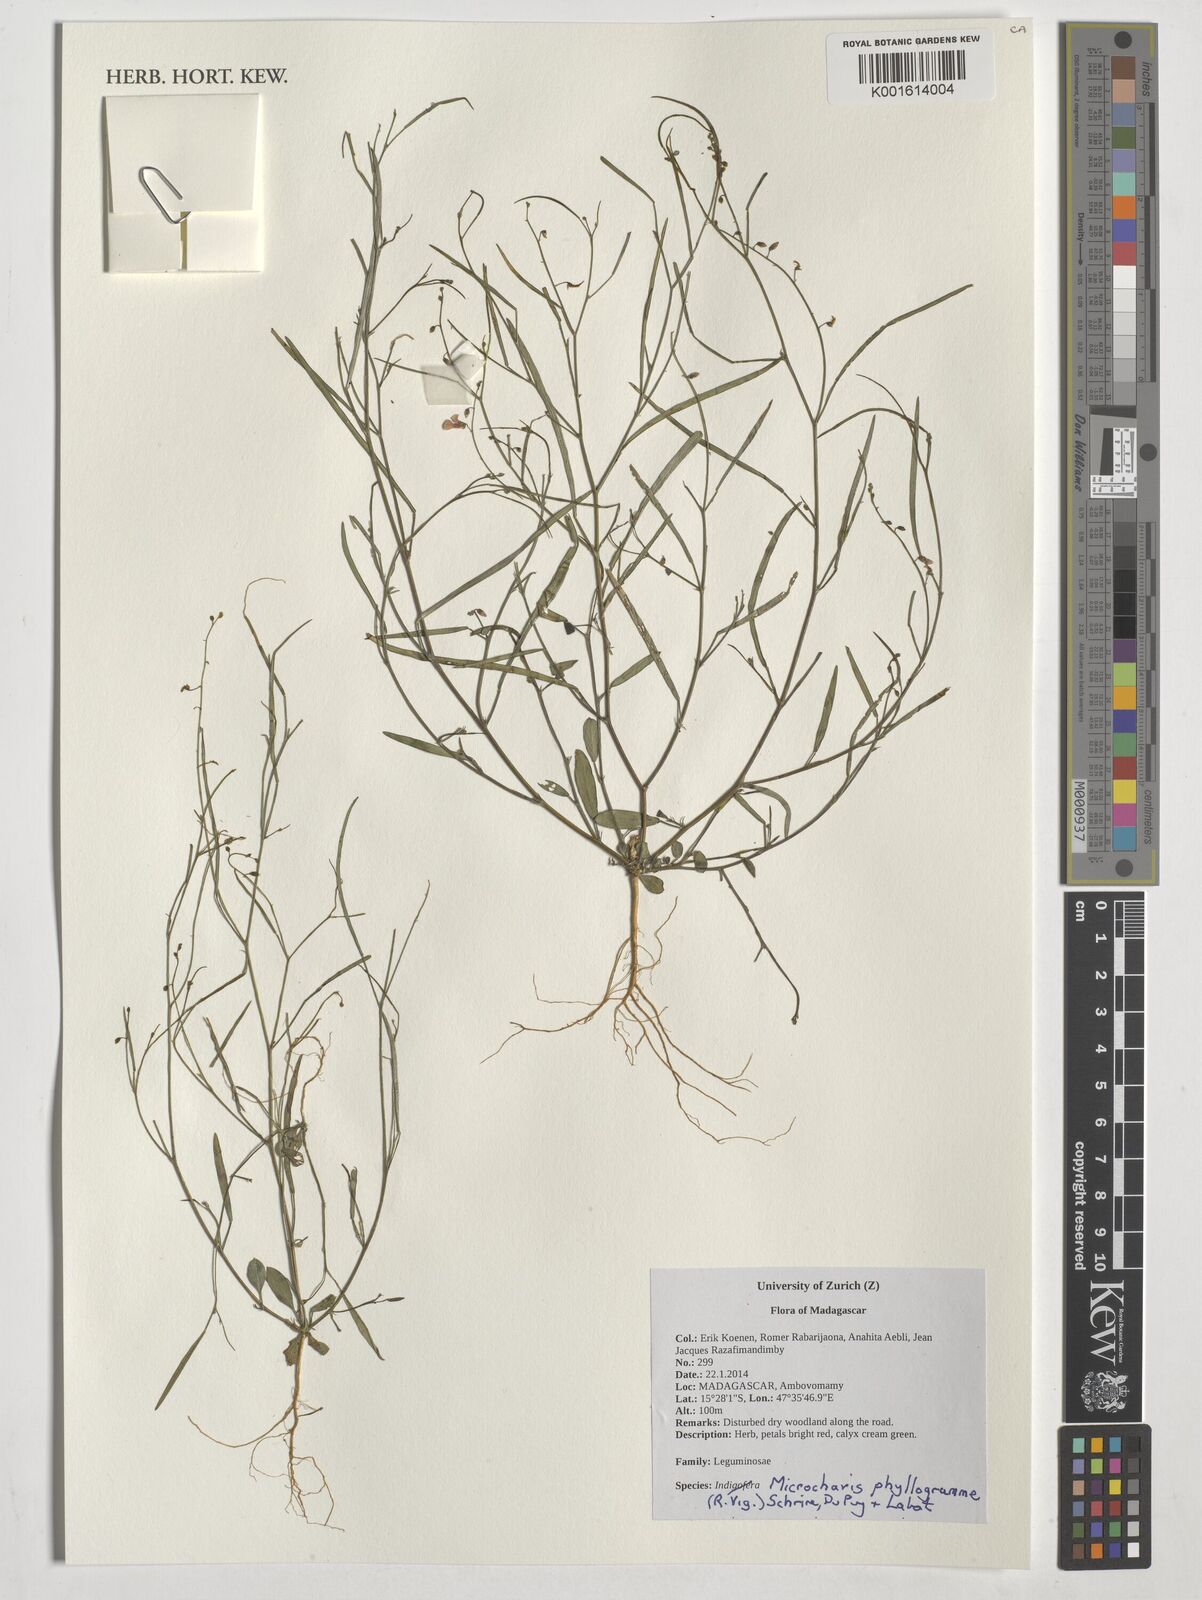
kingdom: Plantae
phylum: Tracheophyta
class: Magnoliopsida
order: Fabales
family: Fabaceae
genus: Microcharis
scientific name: Microcharis phyllogramme
